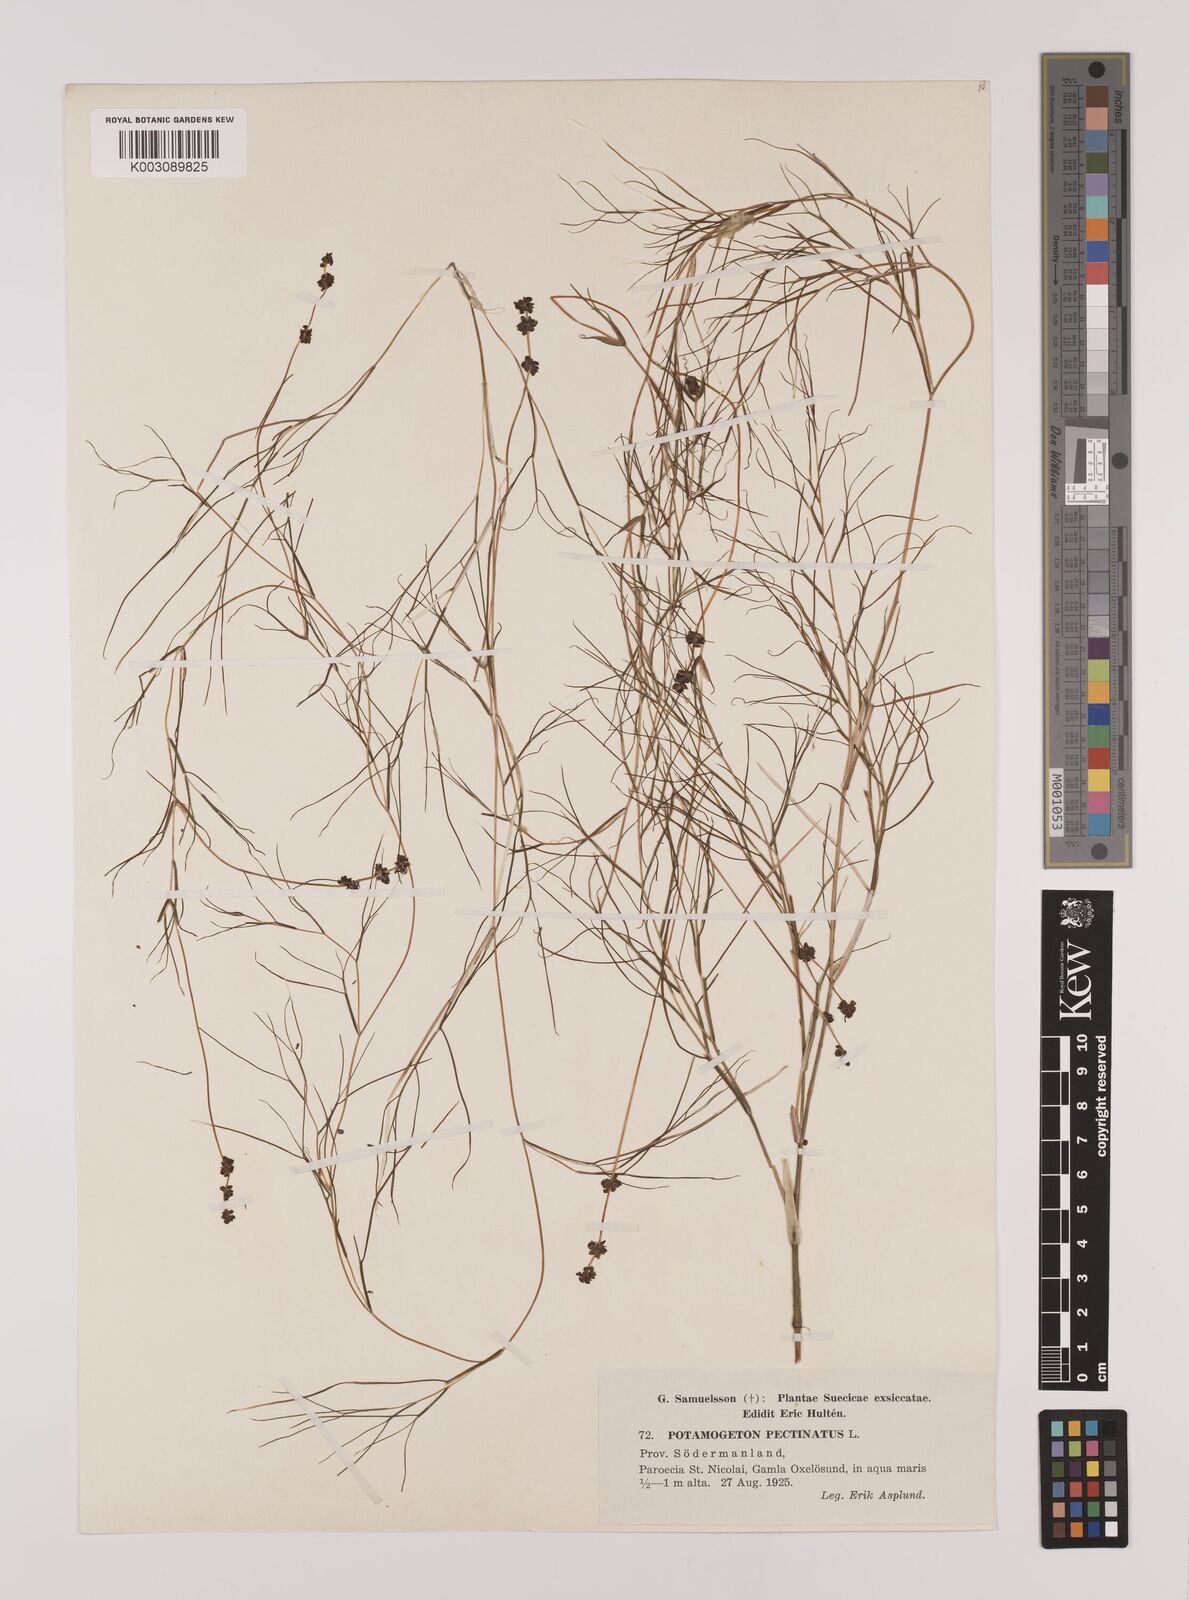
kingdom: Plantae
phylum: Tracheophyta
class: Liliopsida
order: Alismatales
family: Potamogetonaceae
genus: Stuckenia
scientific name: Stuckenia pectinata
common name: Sago pondweed
